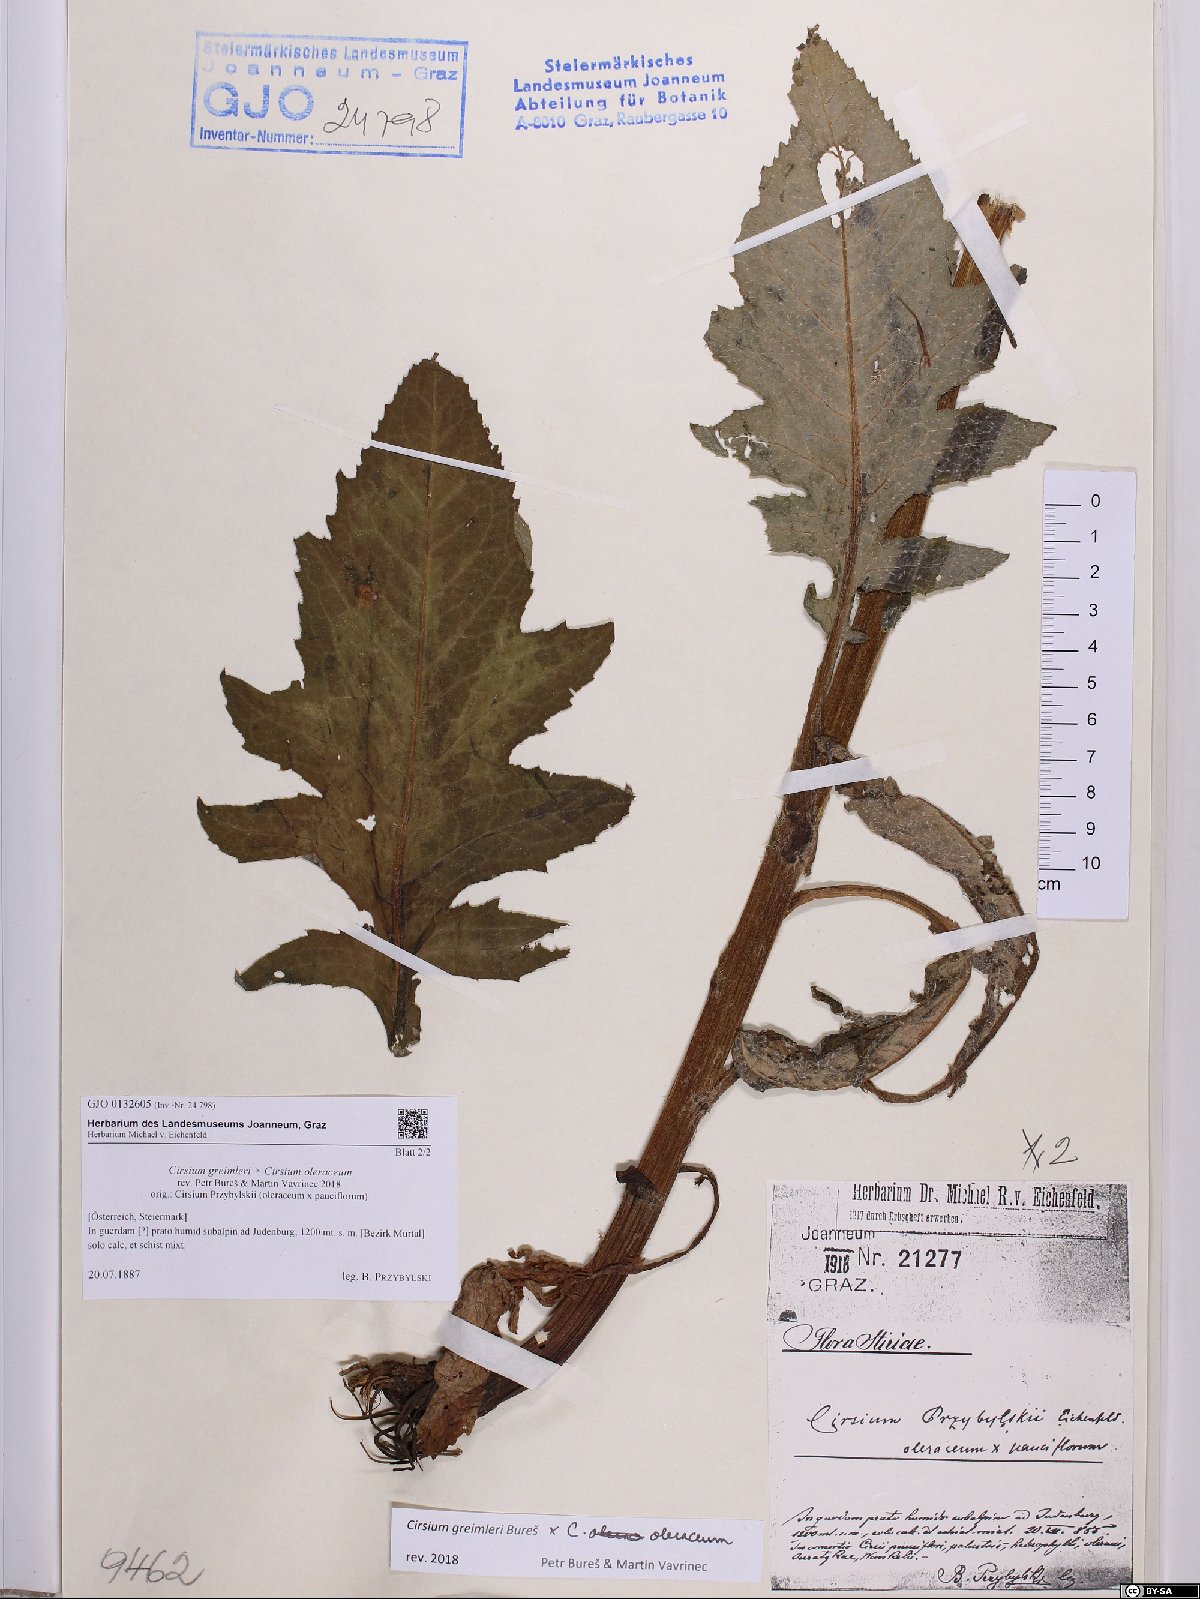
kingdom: Plantae
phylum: Tracheophyta
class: Magnoliopsida
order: Asterales
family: Asteraceae
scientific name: Asteraceae
